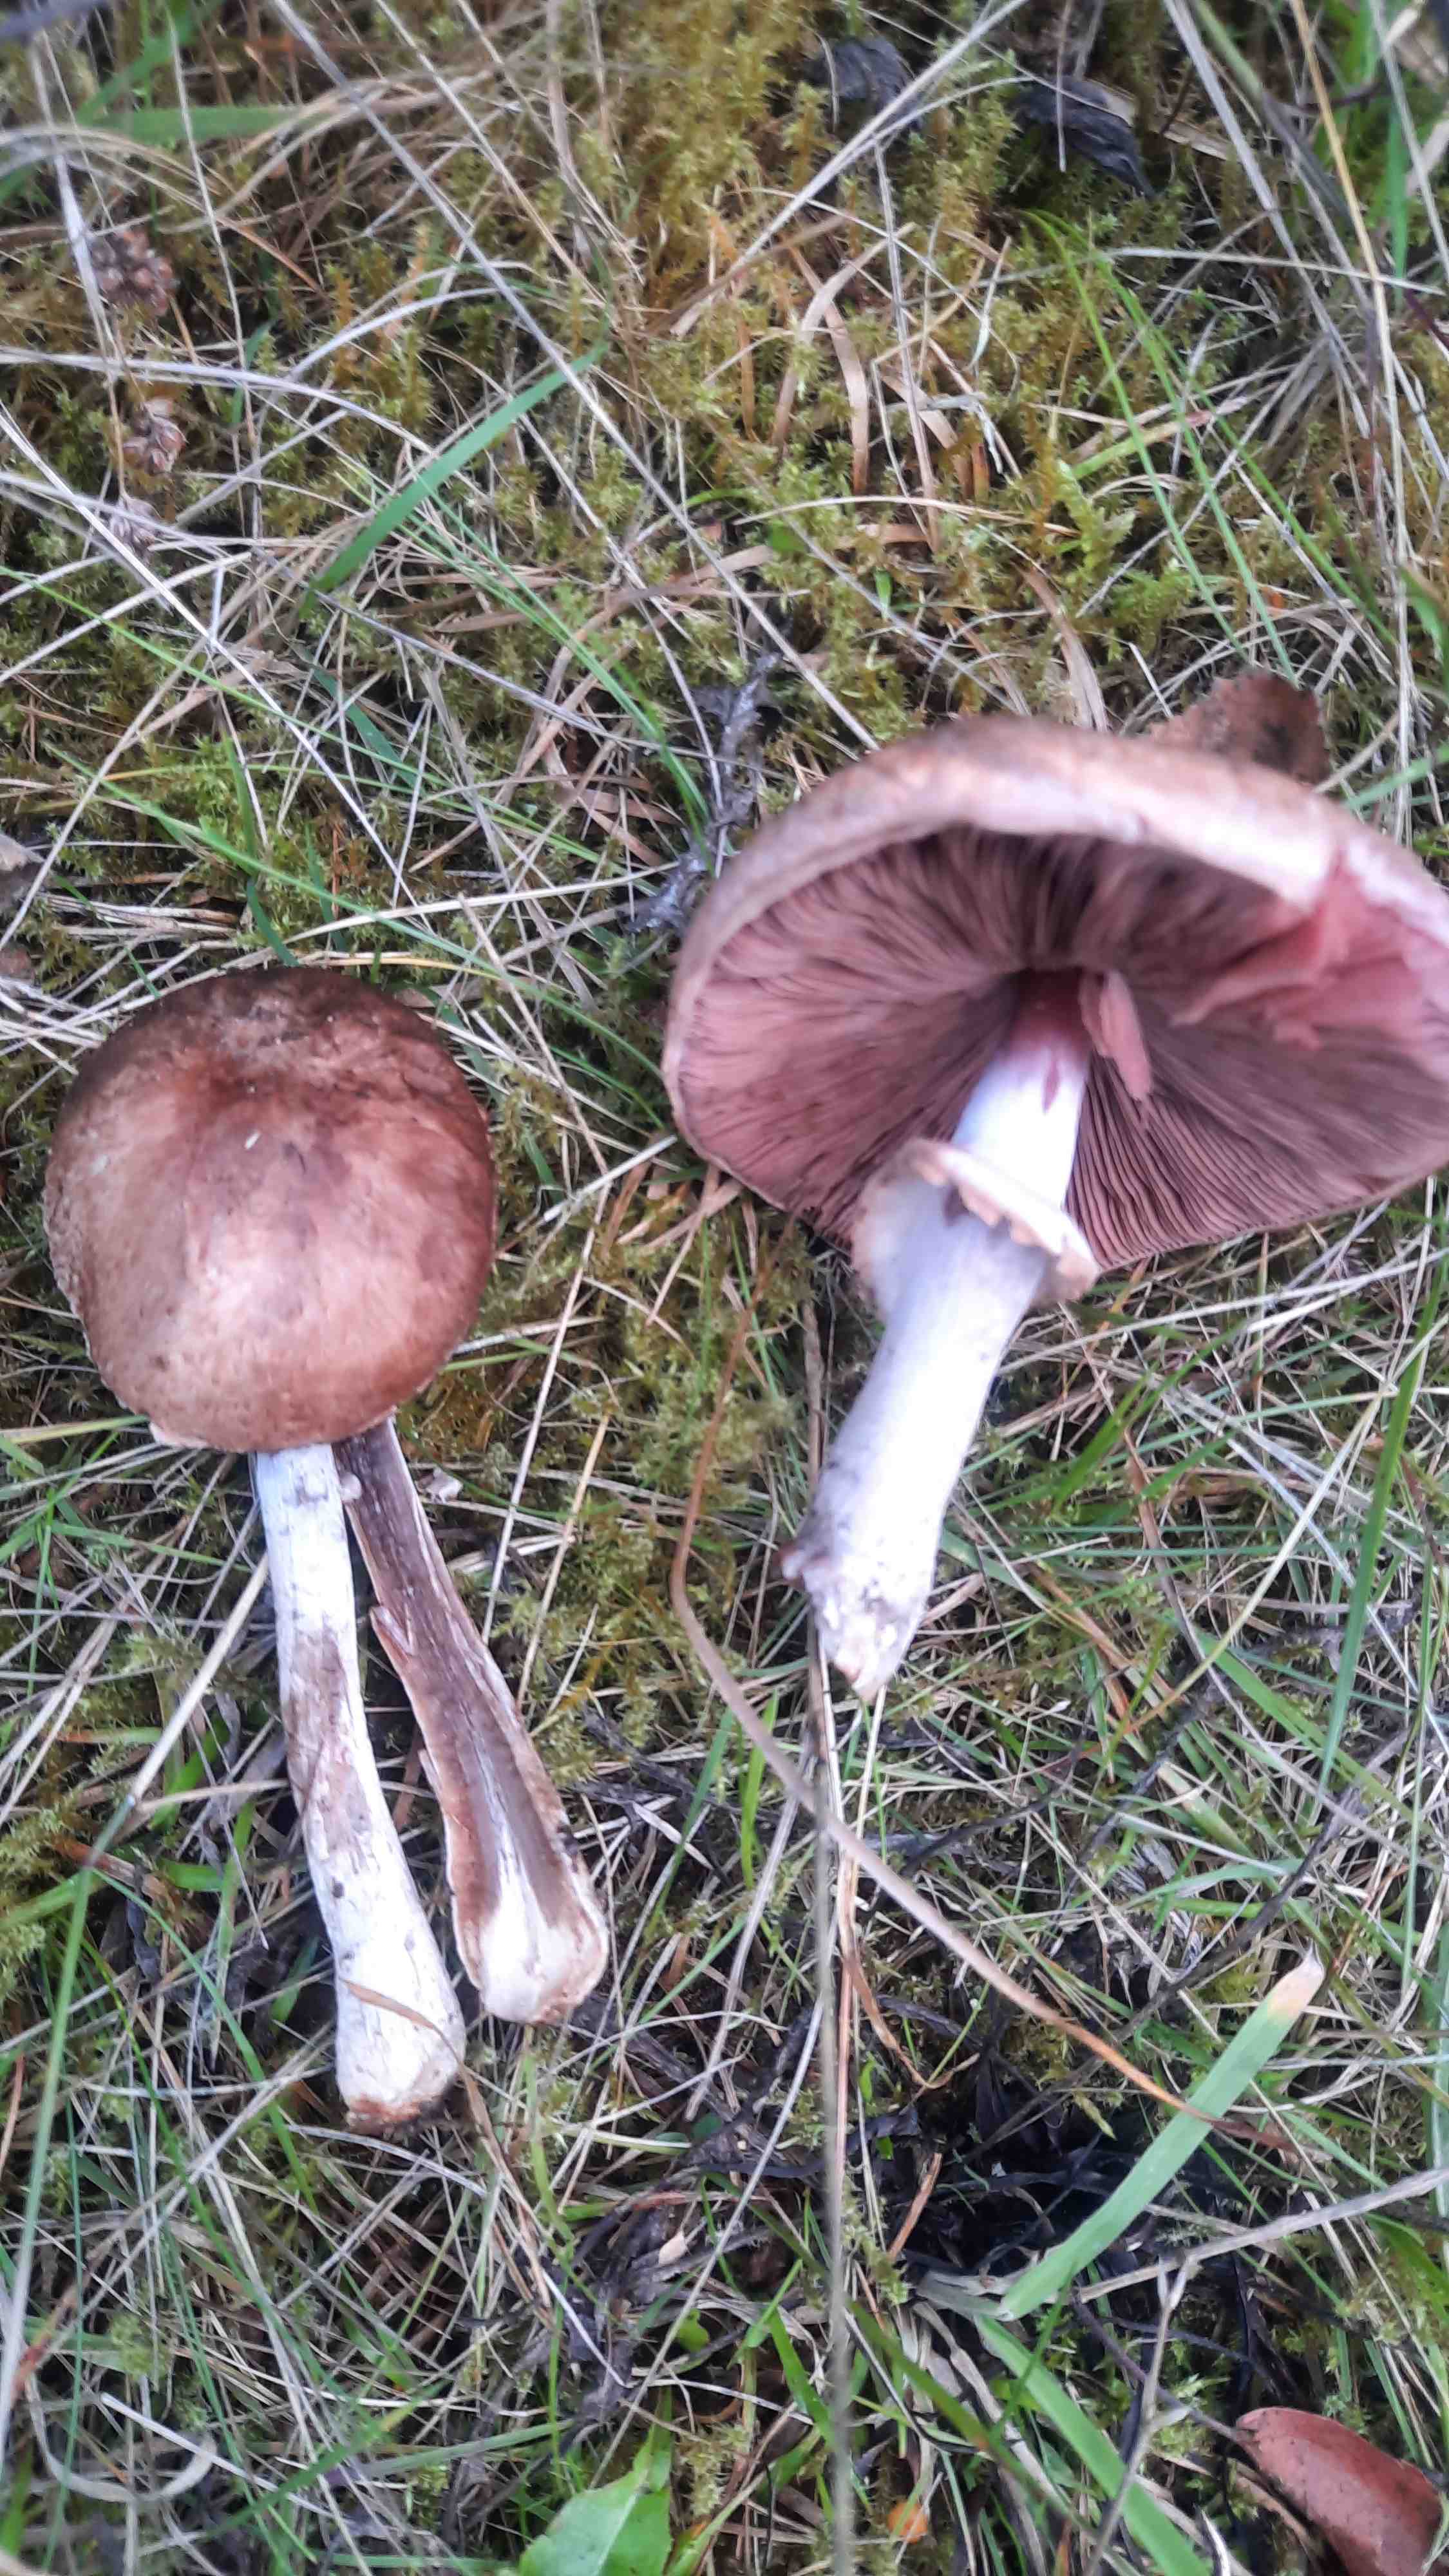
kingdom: Fungi
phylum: Basidiomycota
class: Agaricomycetes
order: Agaricales
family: Agaricaceae
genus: Agaricus
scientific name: Agaricus
